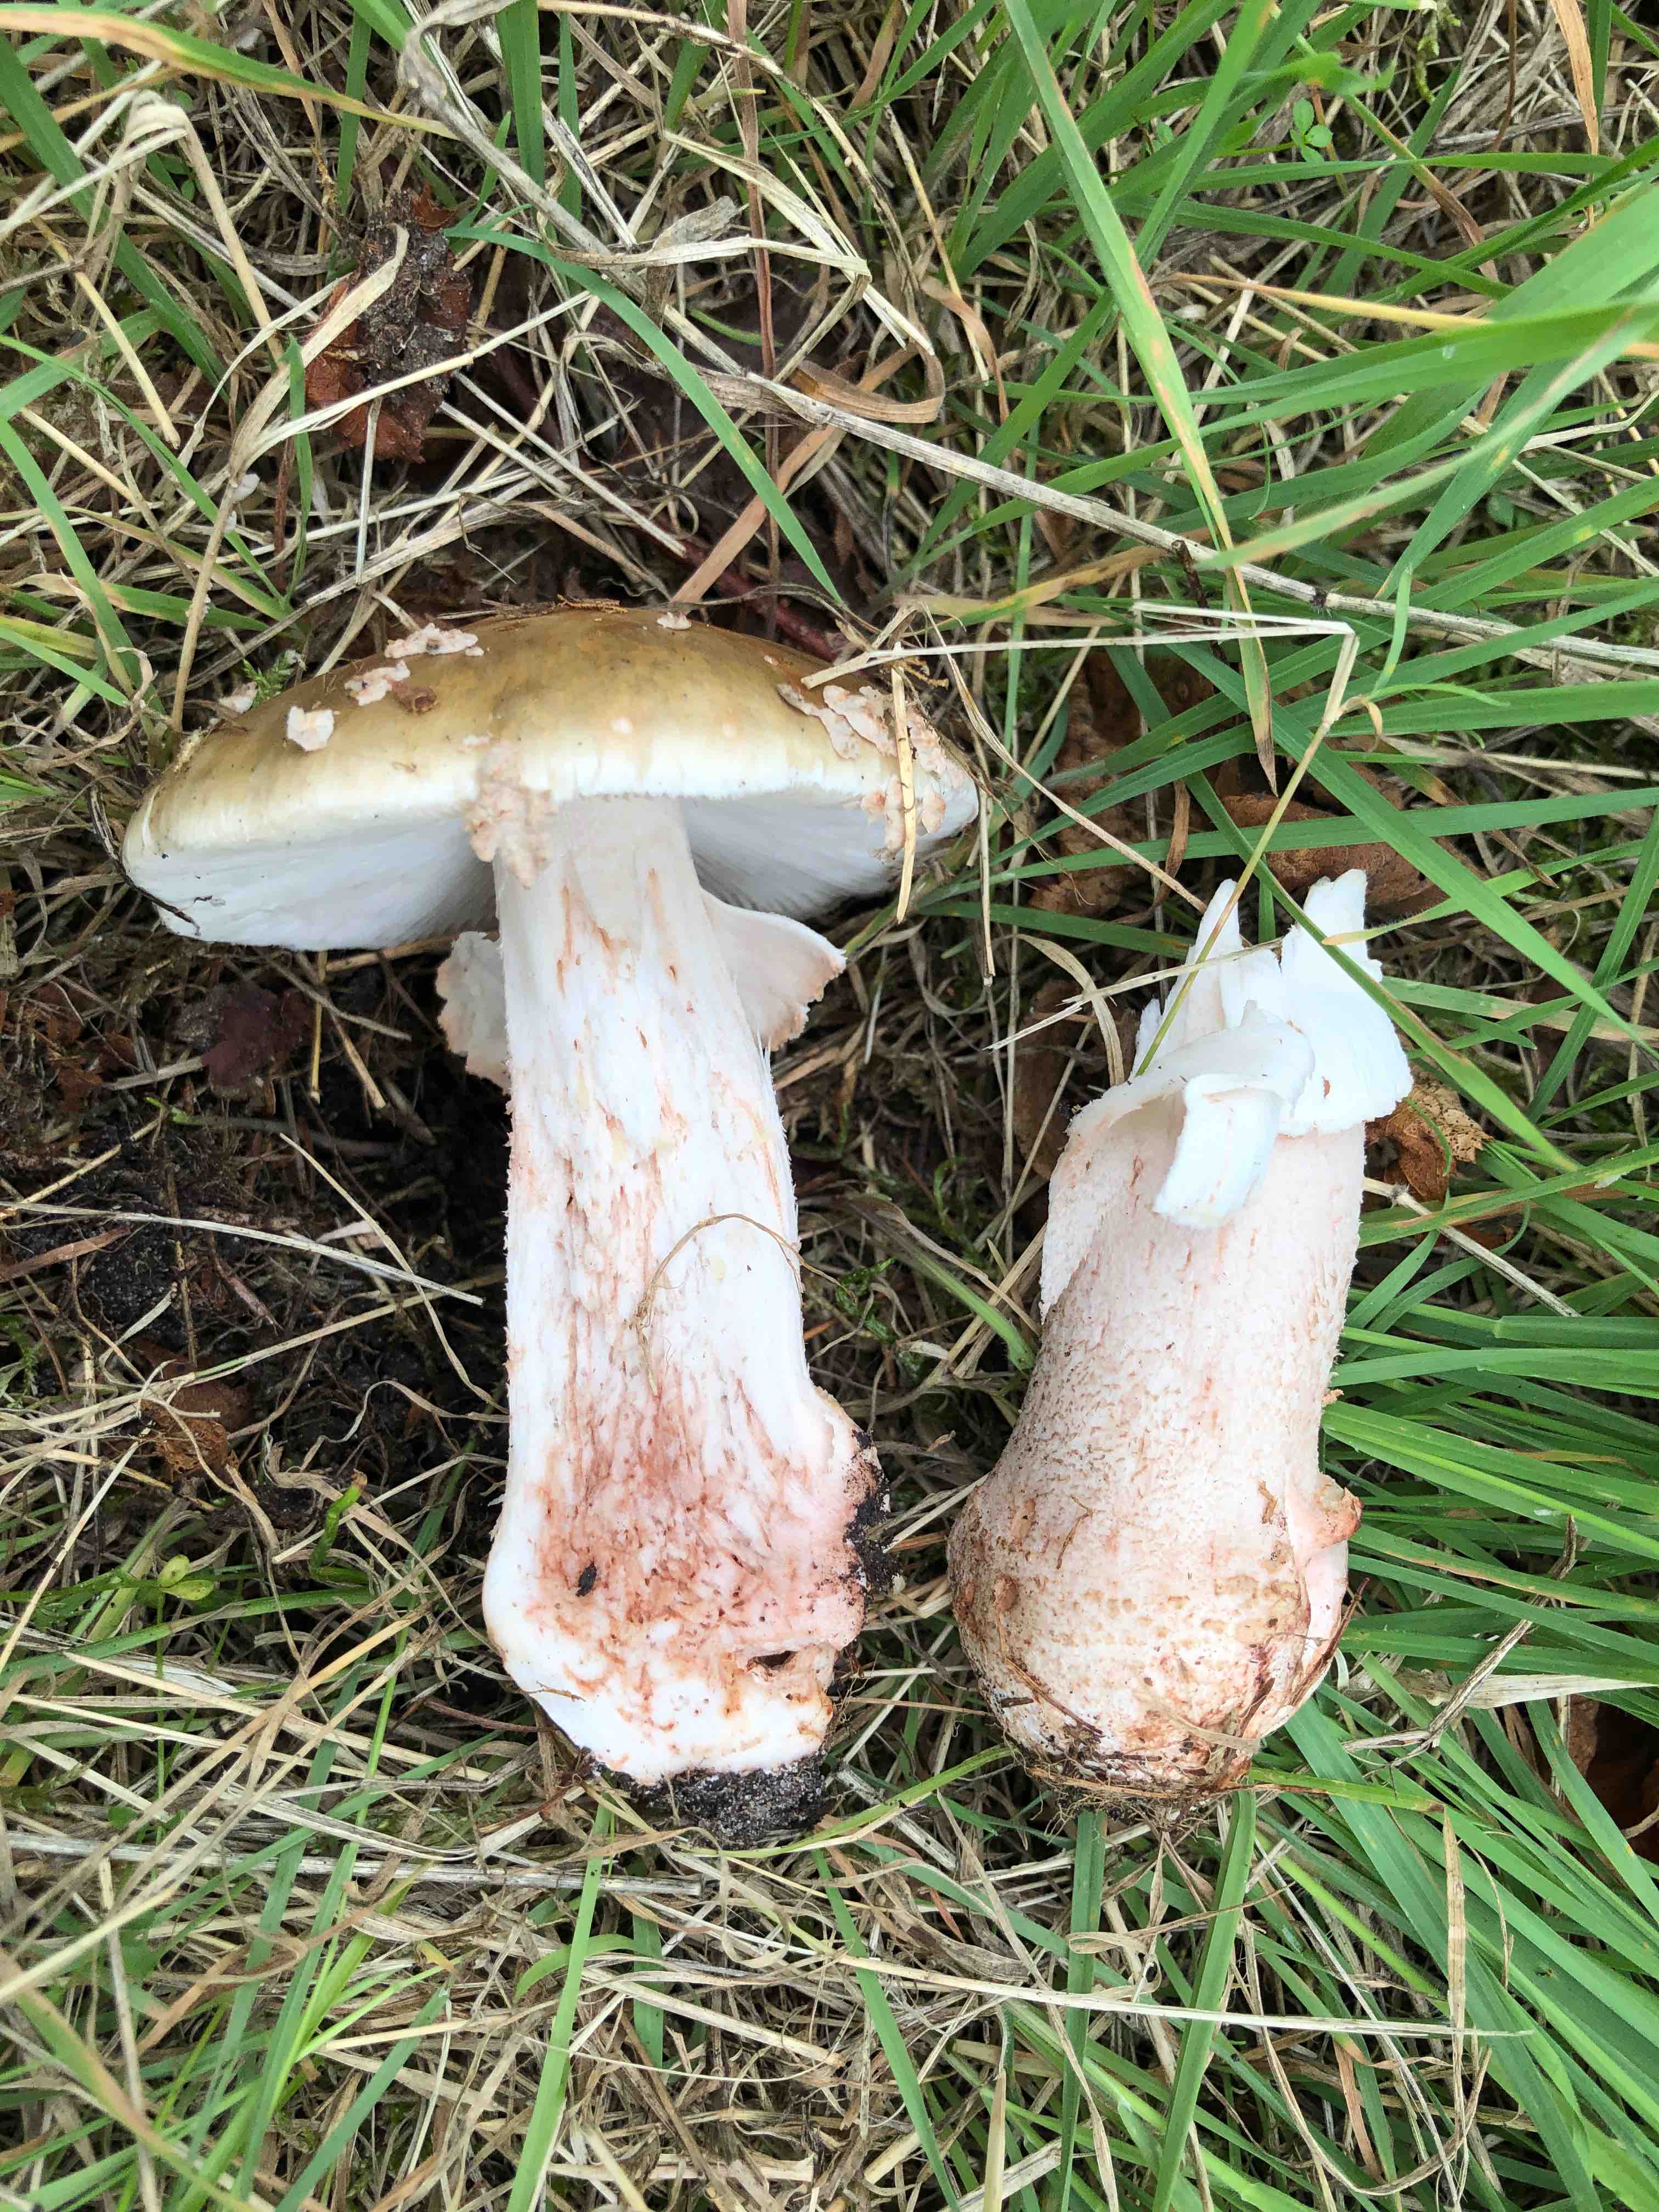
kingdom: Fungi
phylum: Basidiomycota
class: Agaricomycetes
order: Agaricales
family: Amanitaceae
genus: Amanita
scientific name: Amanita rubescens
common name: rødmende fluesvamp
